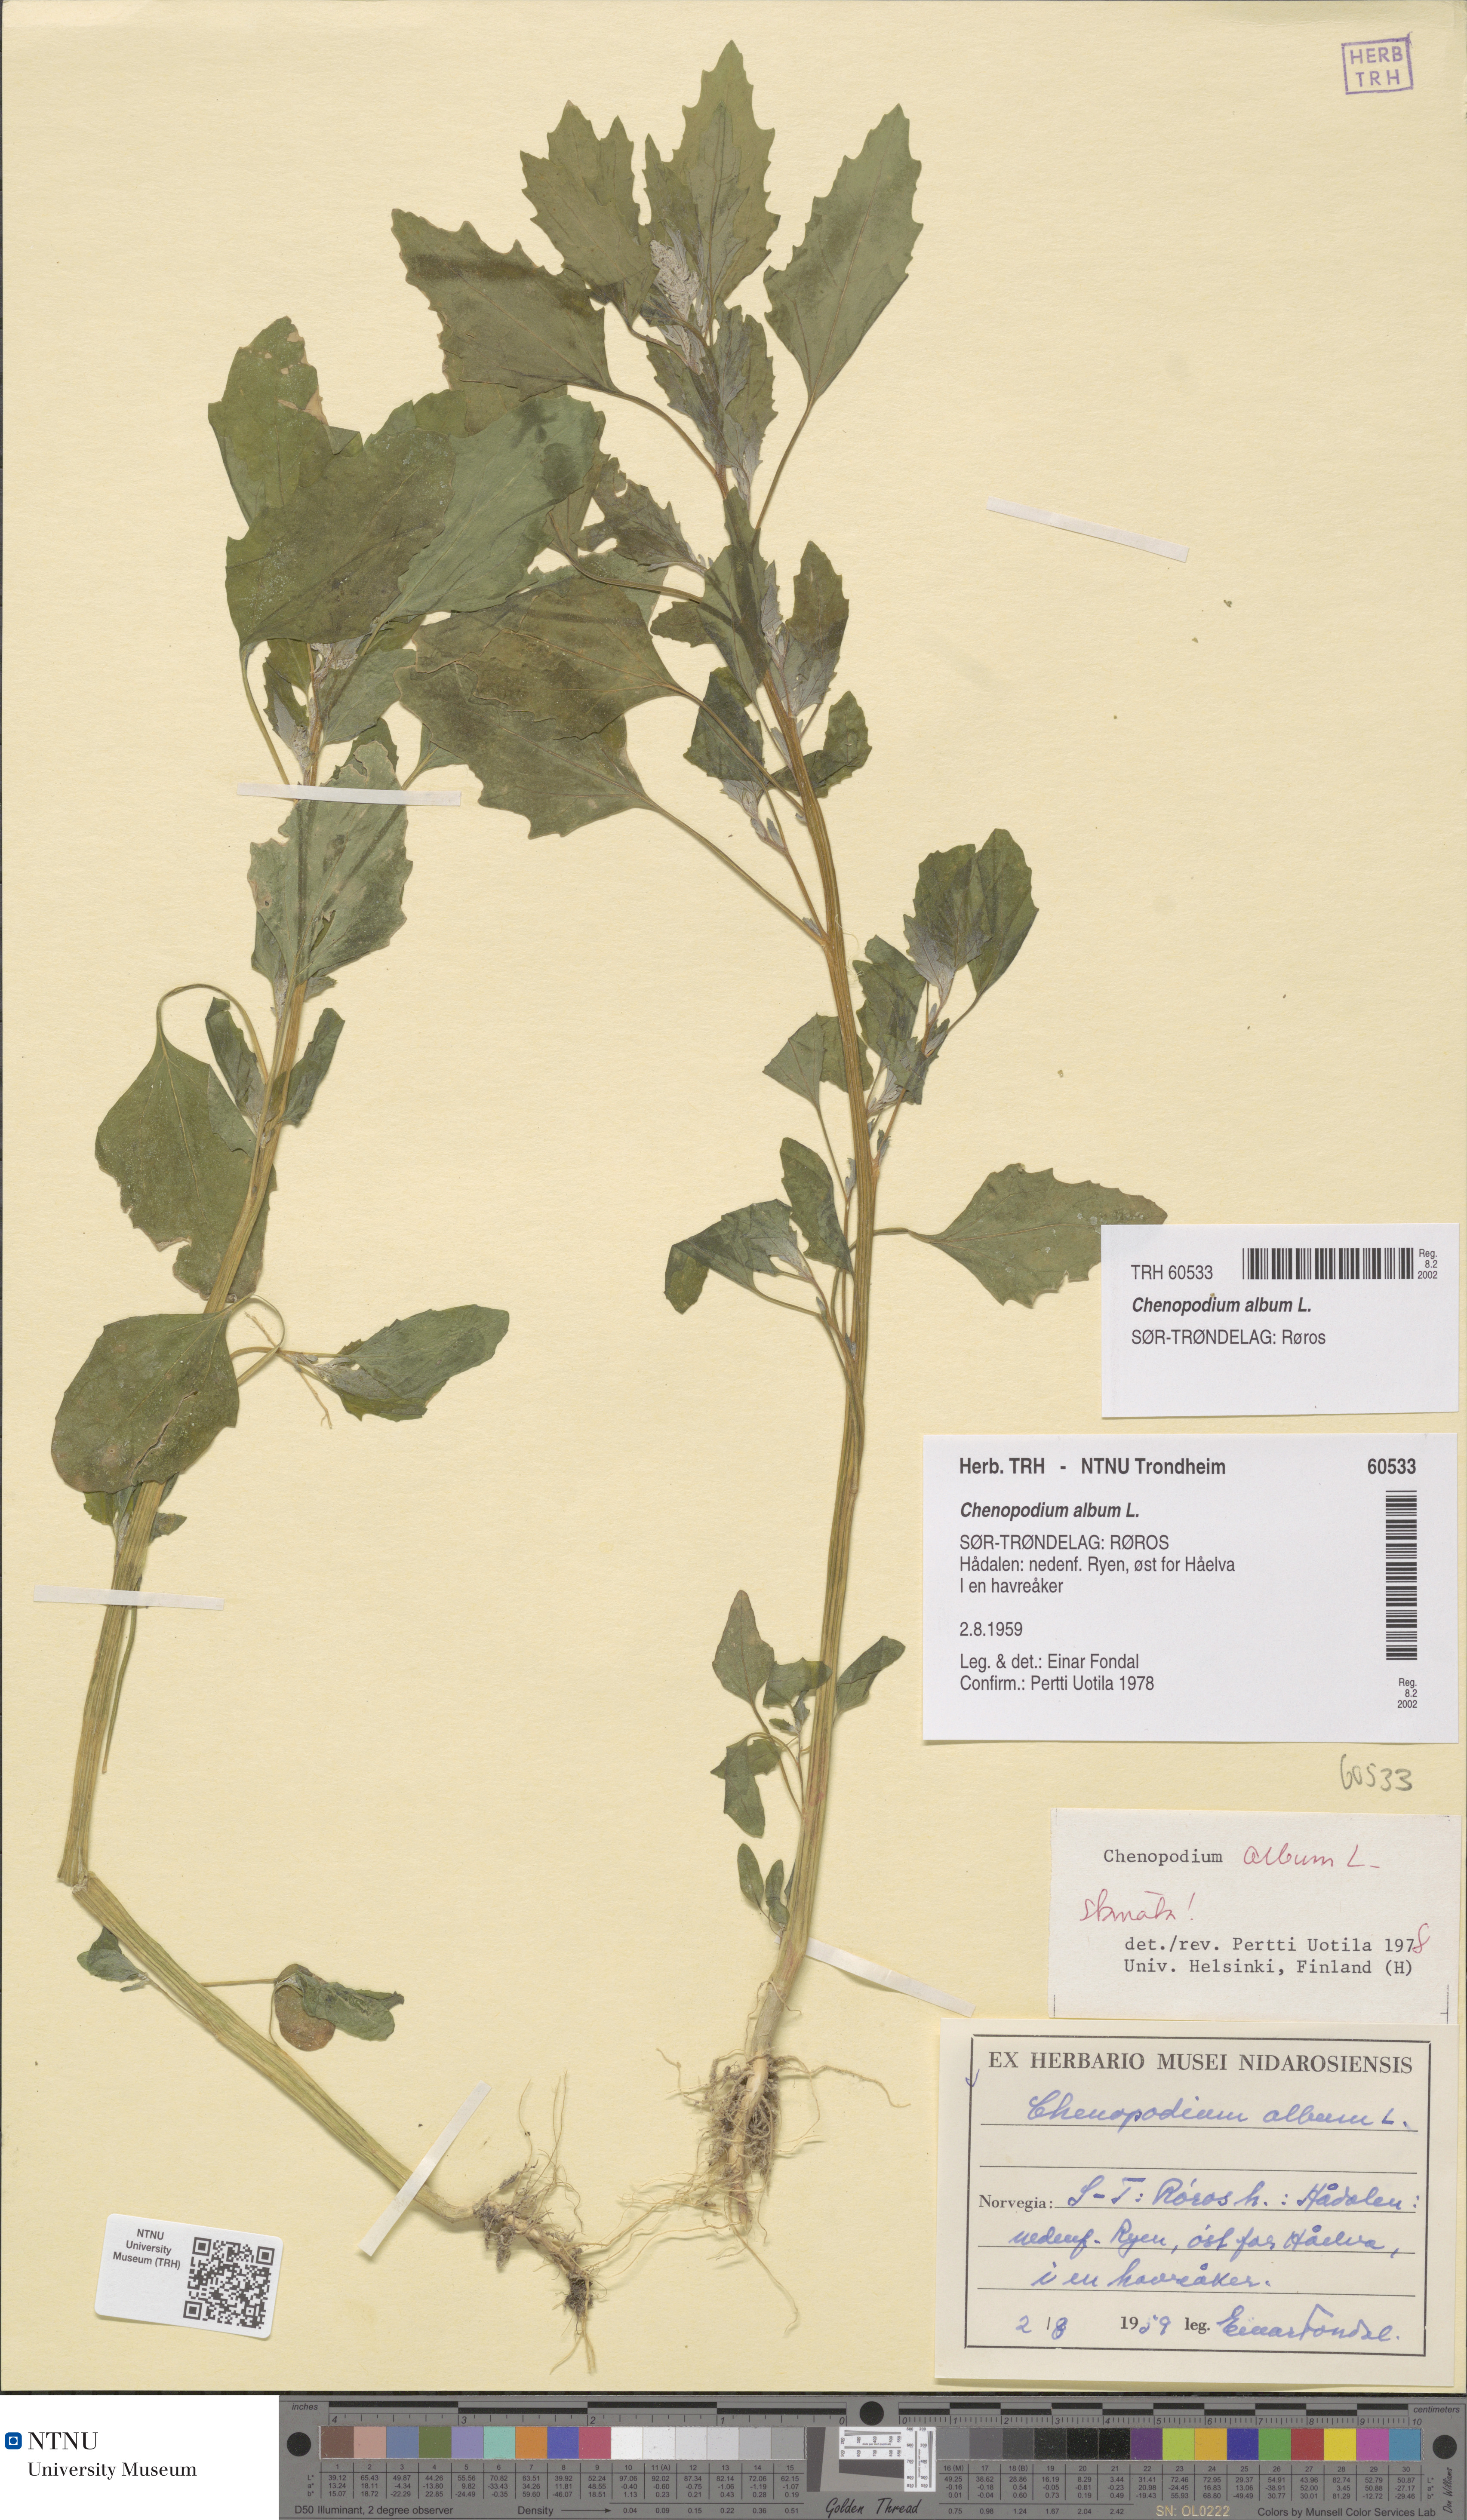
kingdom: Plantae
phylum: Tracheophyta
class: Magnoliopsida
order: Caryophyllales
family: Amaranthaceae
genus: Chenopodium
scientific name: Chenopodium album
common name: Fat-hen
